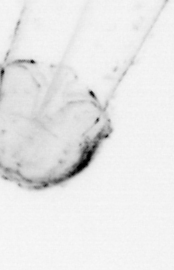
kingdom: Animalia
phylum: Chaetognatha
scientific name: Chaetognatha
